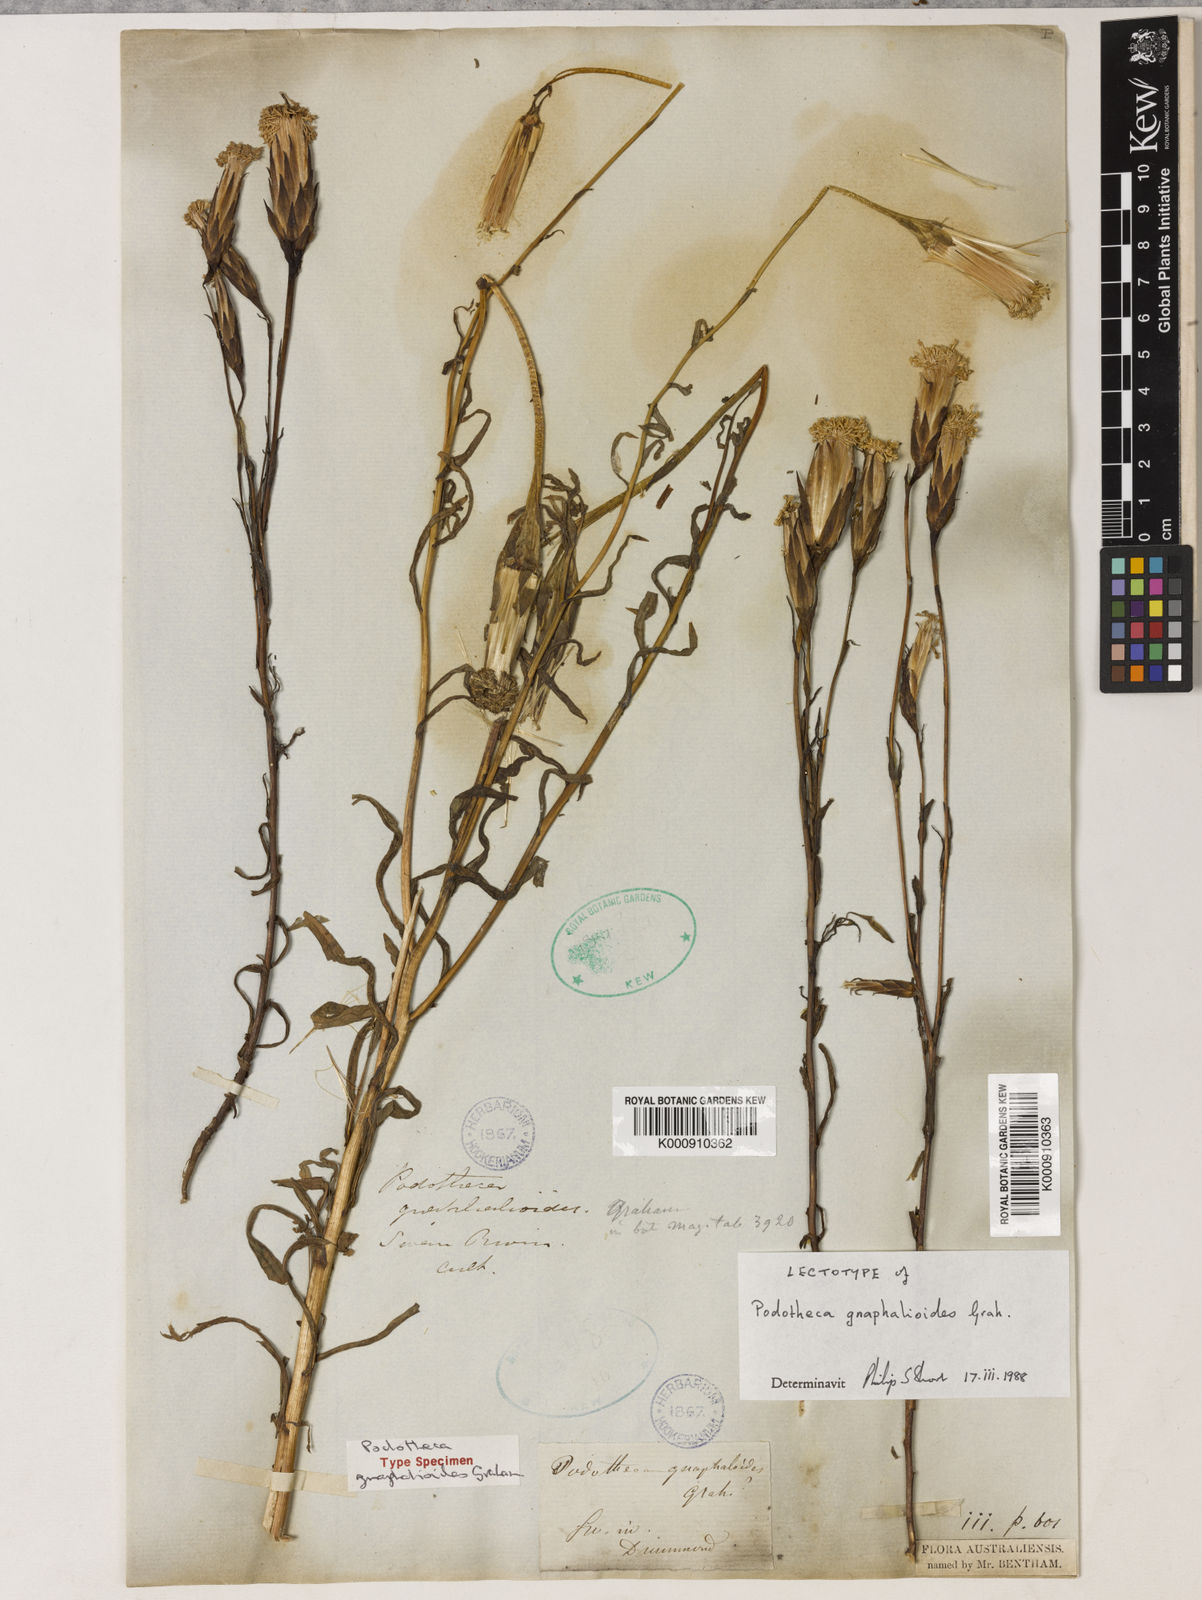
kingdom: Plantae
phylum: Tracheophyta
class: Magnoliopsida
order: Asterales
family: Asteraceae
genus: Podotheca
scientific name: Podotheca
